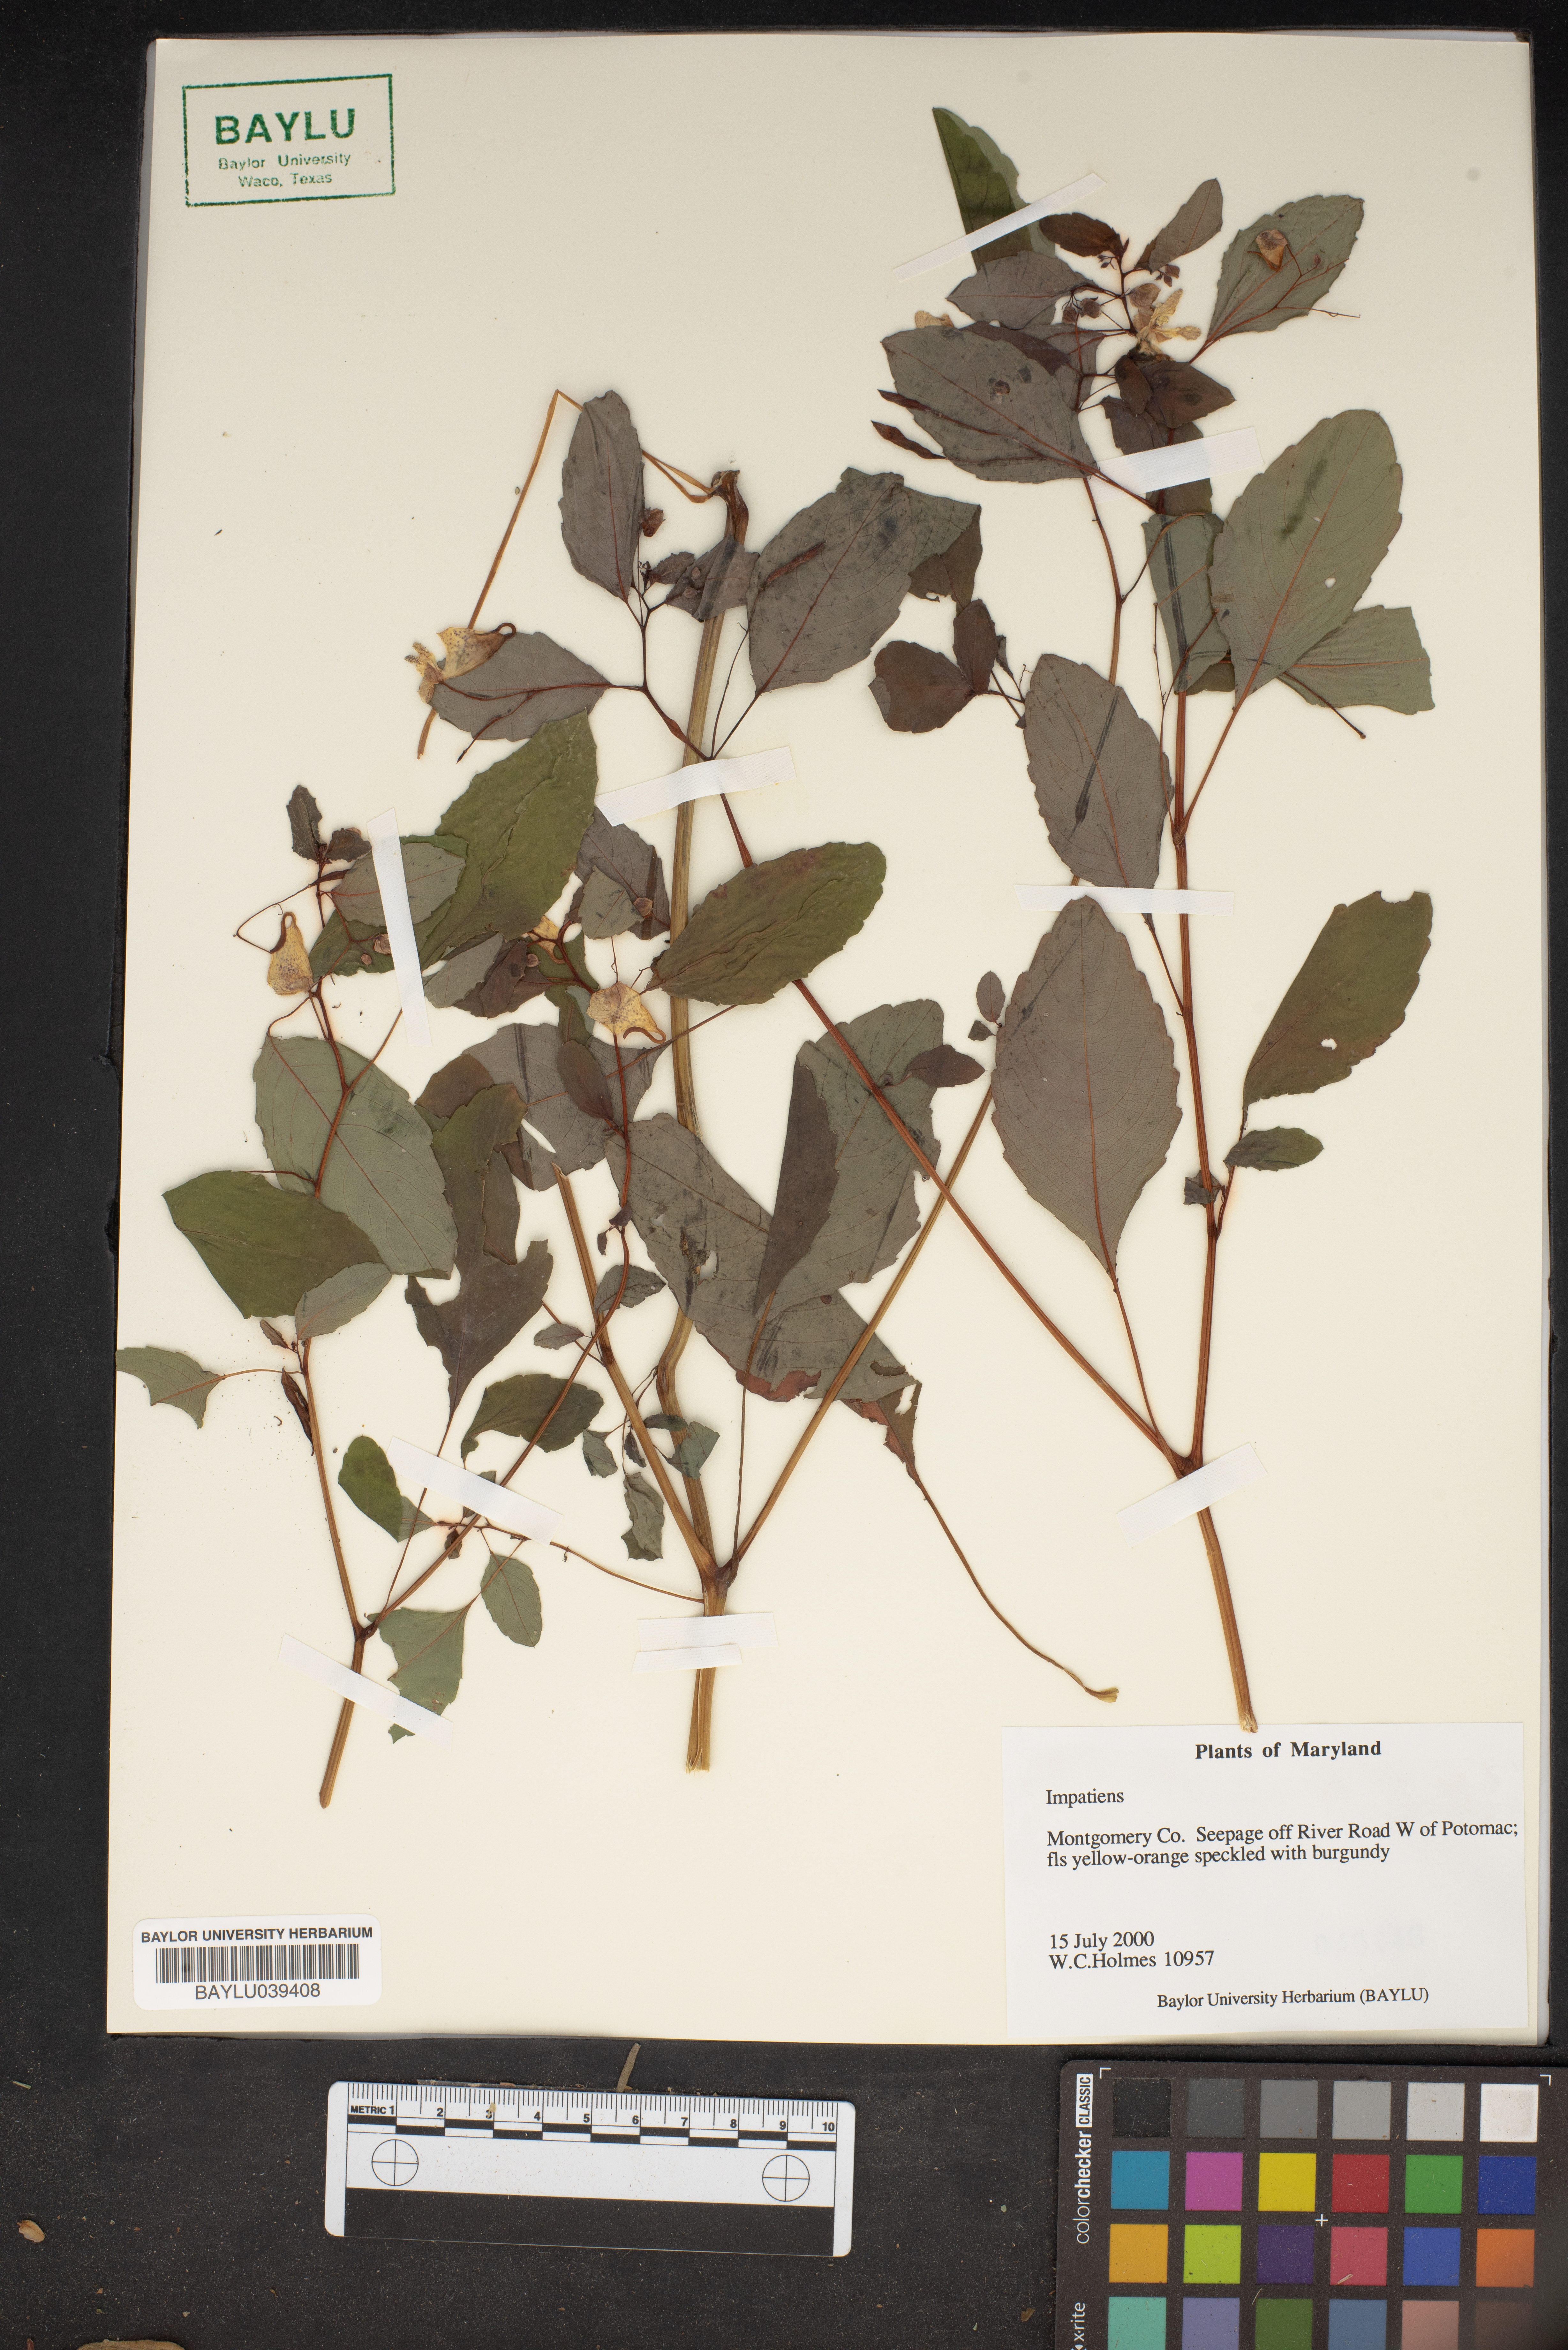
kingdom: Plantae
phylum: Tracheophyta
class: Magnoliopsida
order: Ericales
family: Balsaminaceae
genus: Impatiens
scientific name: Impatiens
